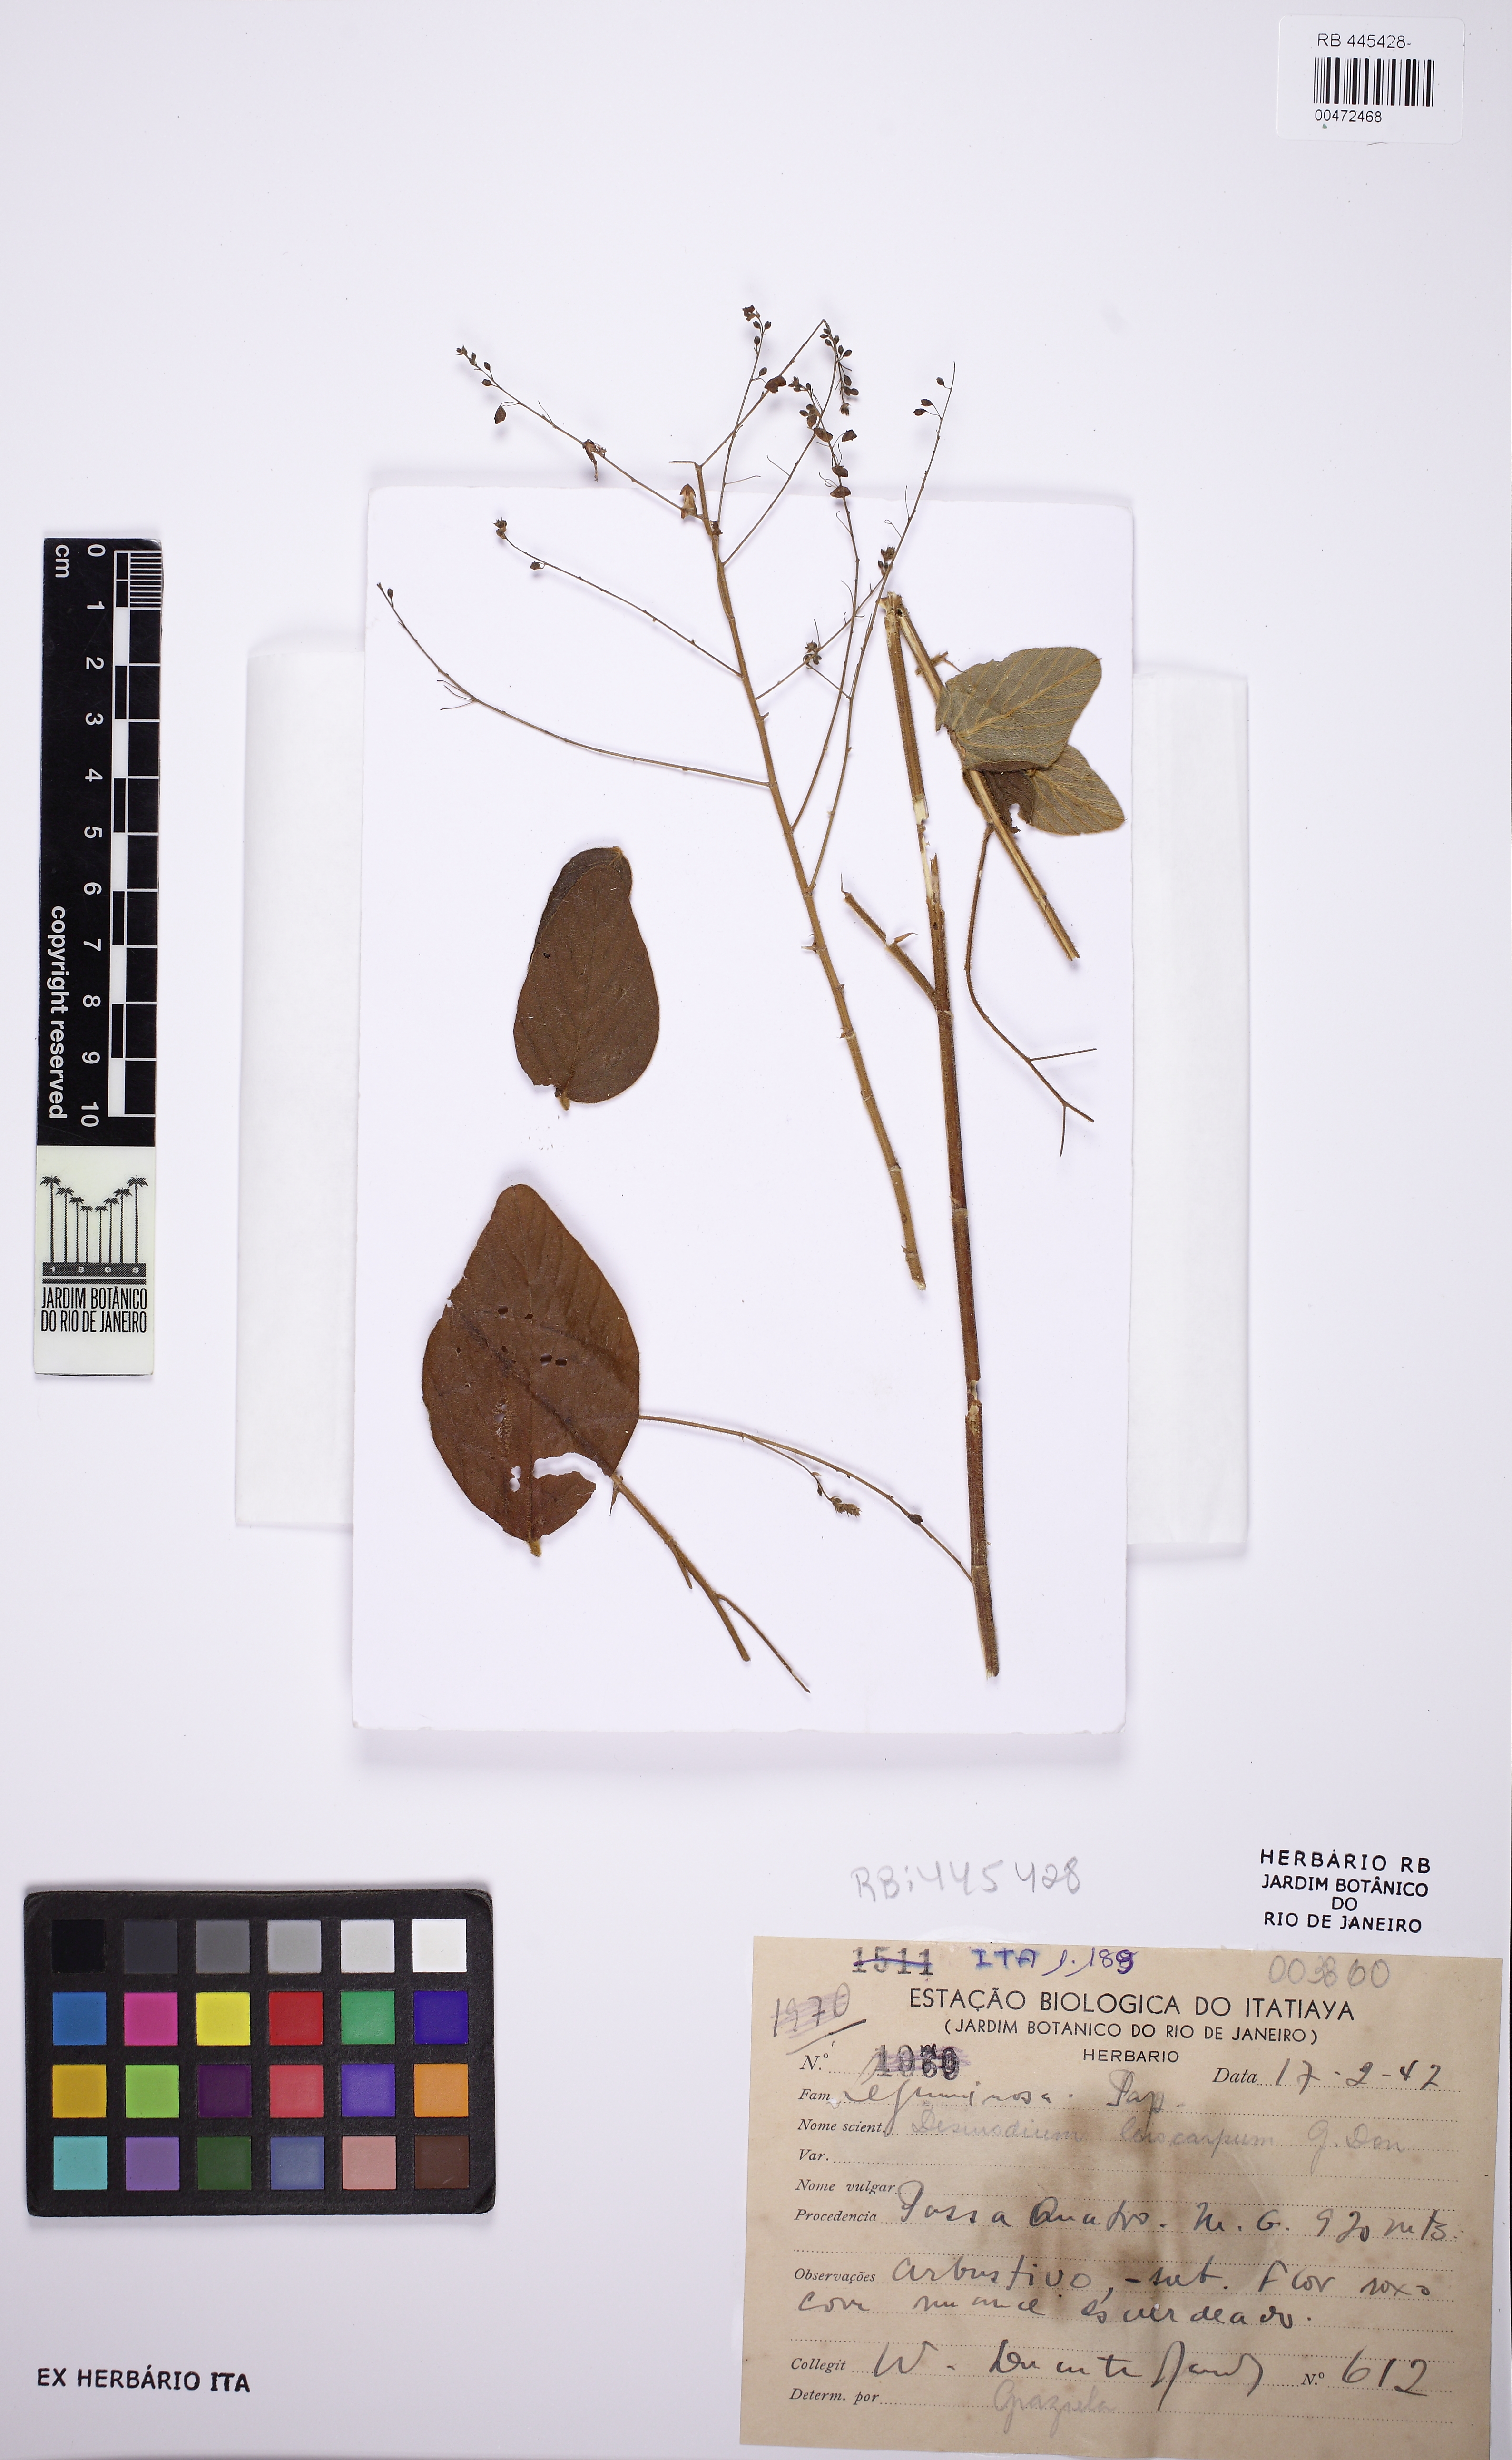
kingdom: Plantae
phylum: Tracheophyta
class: Magnoliopsida
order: Fabales
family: Fabaceae
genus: Desmodium
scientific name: Desmodium leiocarpum
